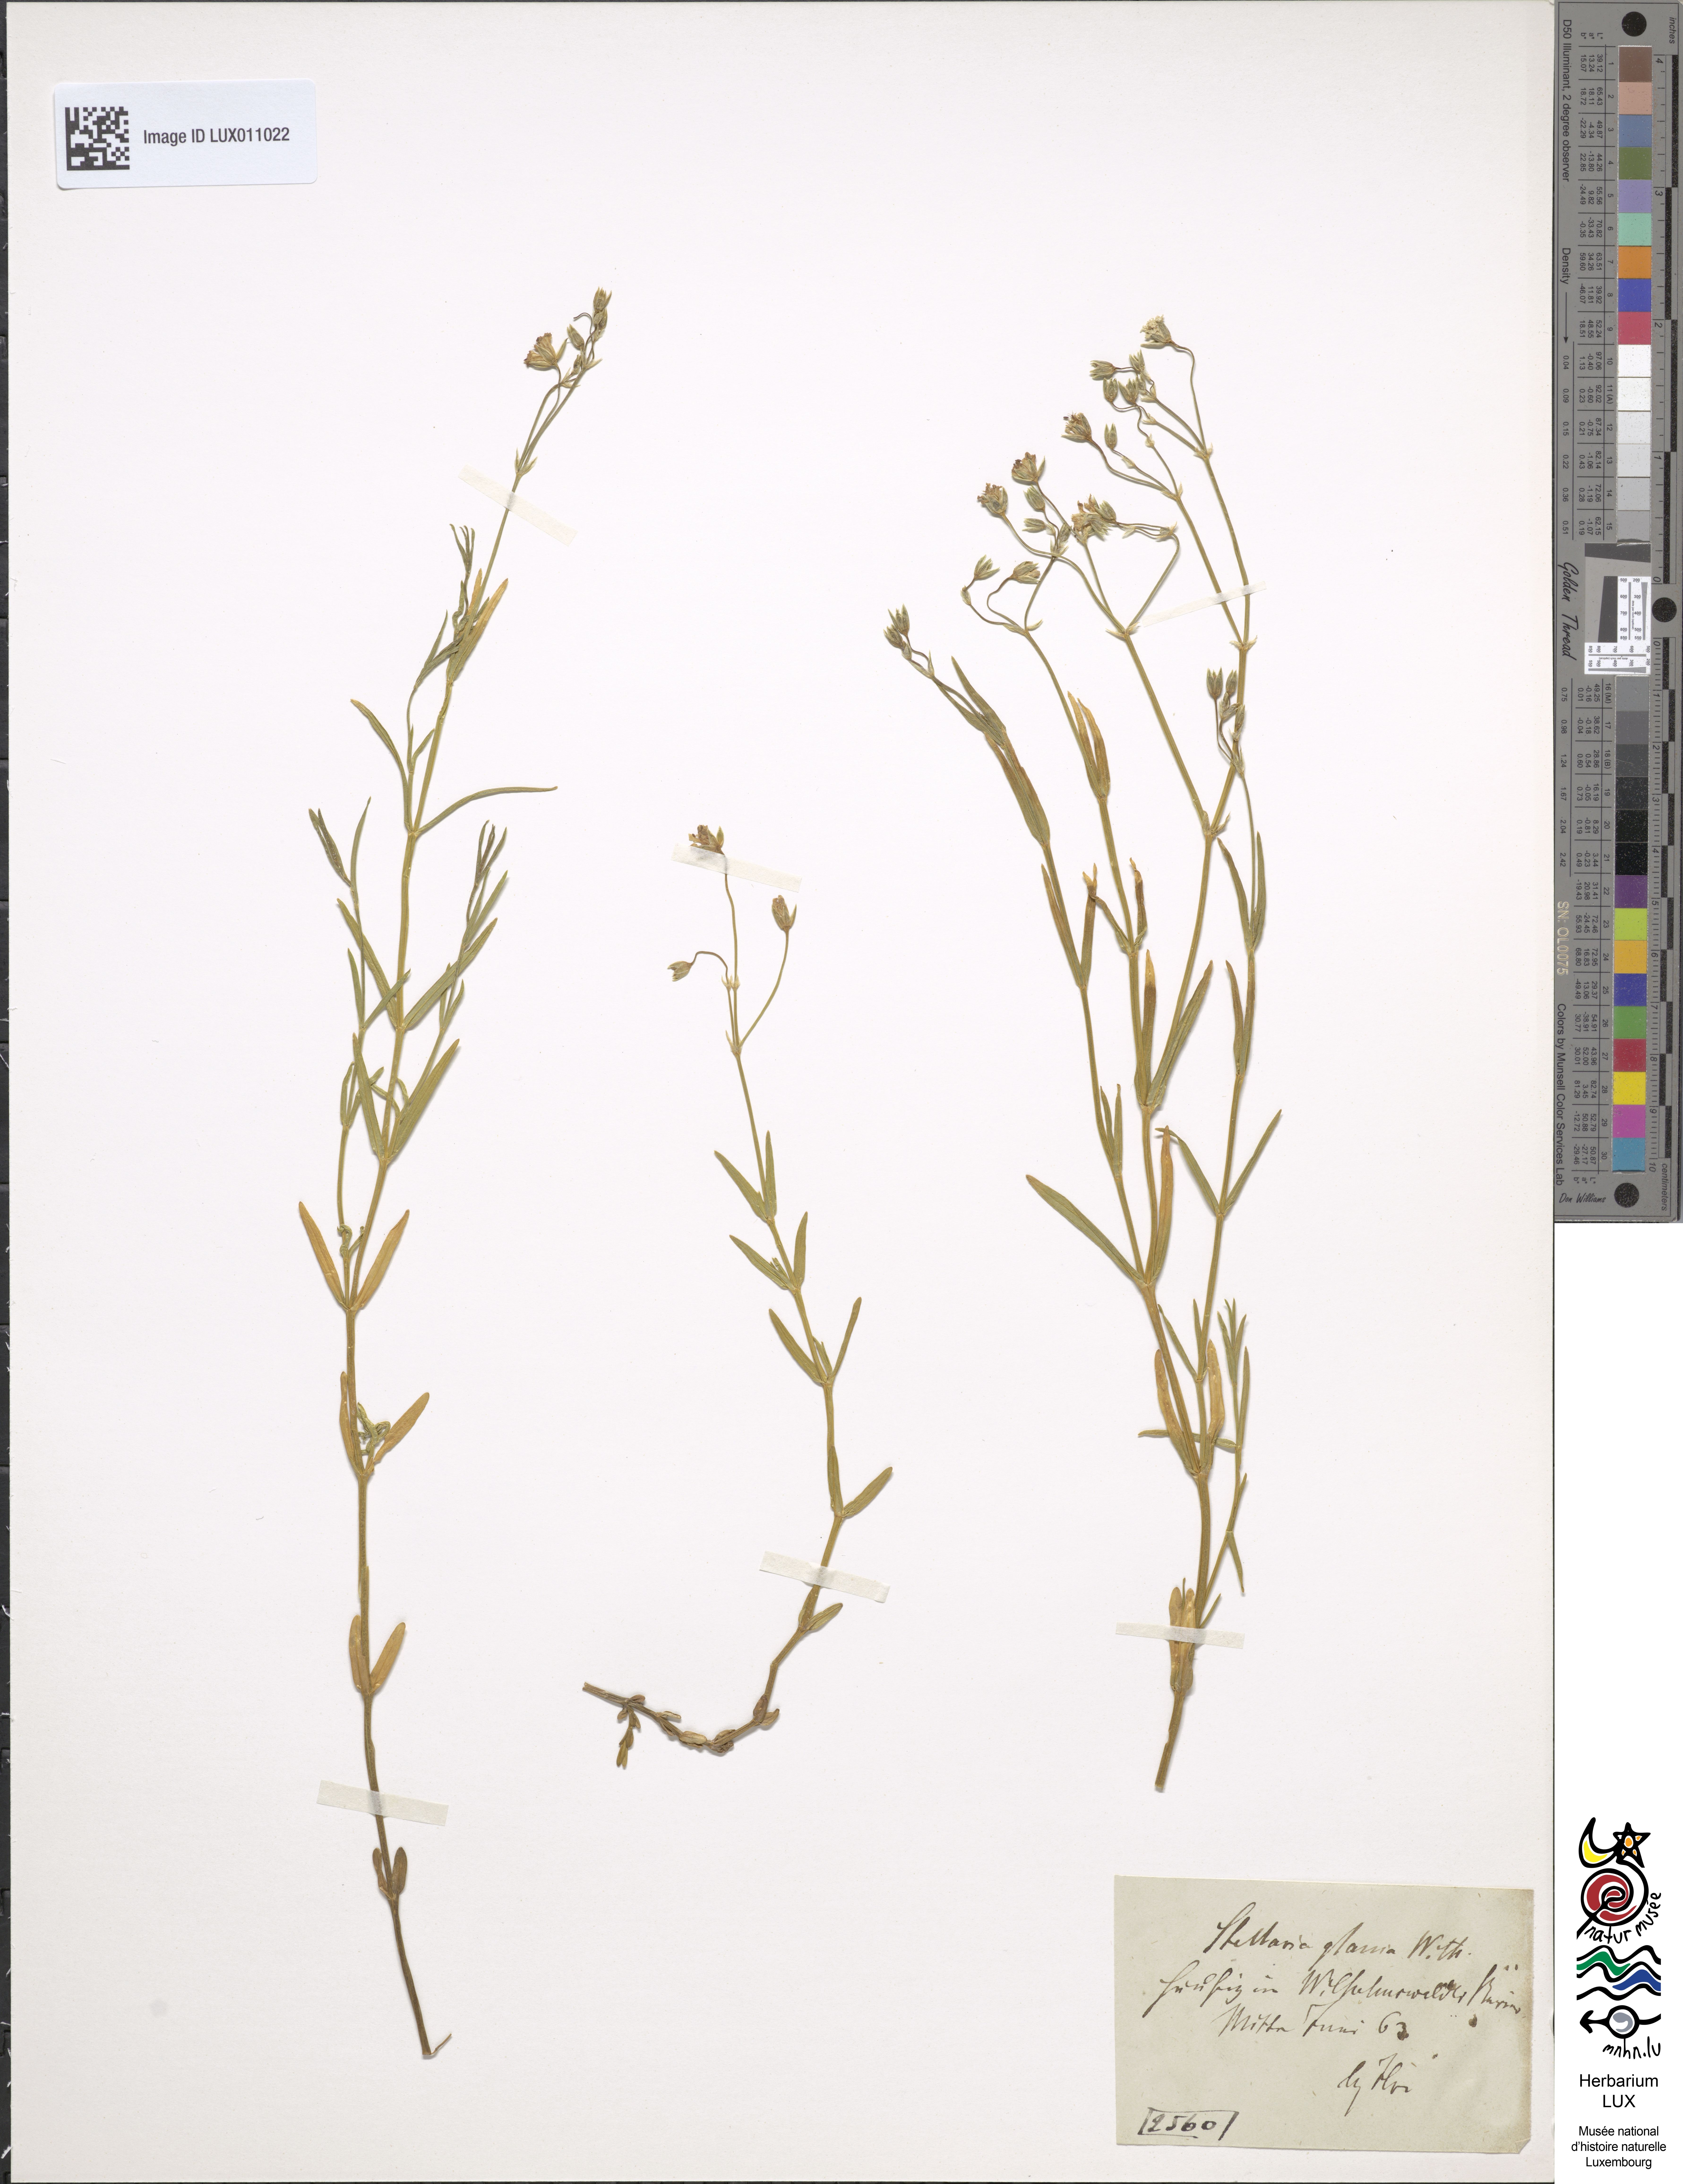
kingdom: Plantae
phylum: Tracheophyta
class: Magnoliopsida
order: Caryophyllales
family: Caryophyllaceae
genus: Stellaria
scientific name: Stellaria palustris
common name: Marsh stitchwort
